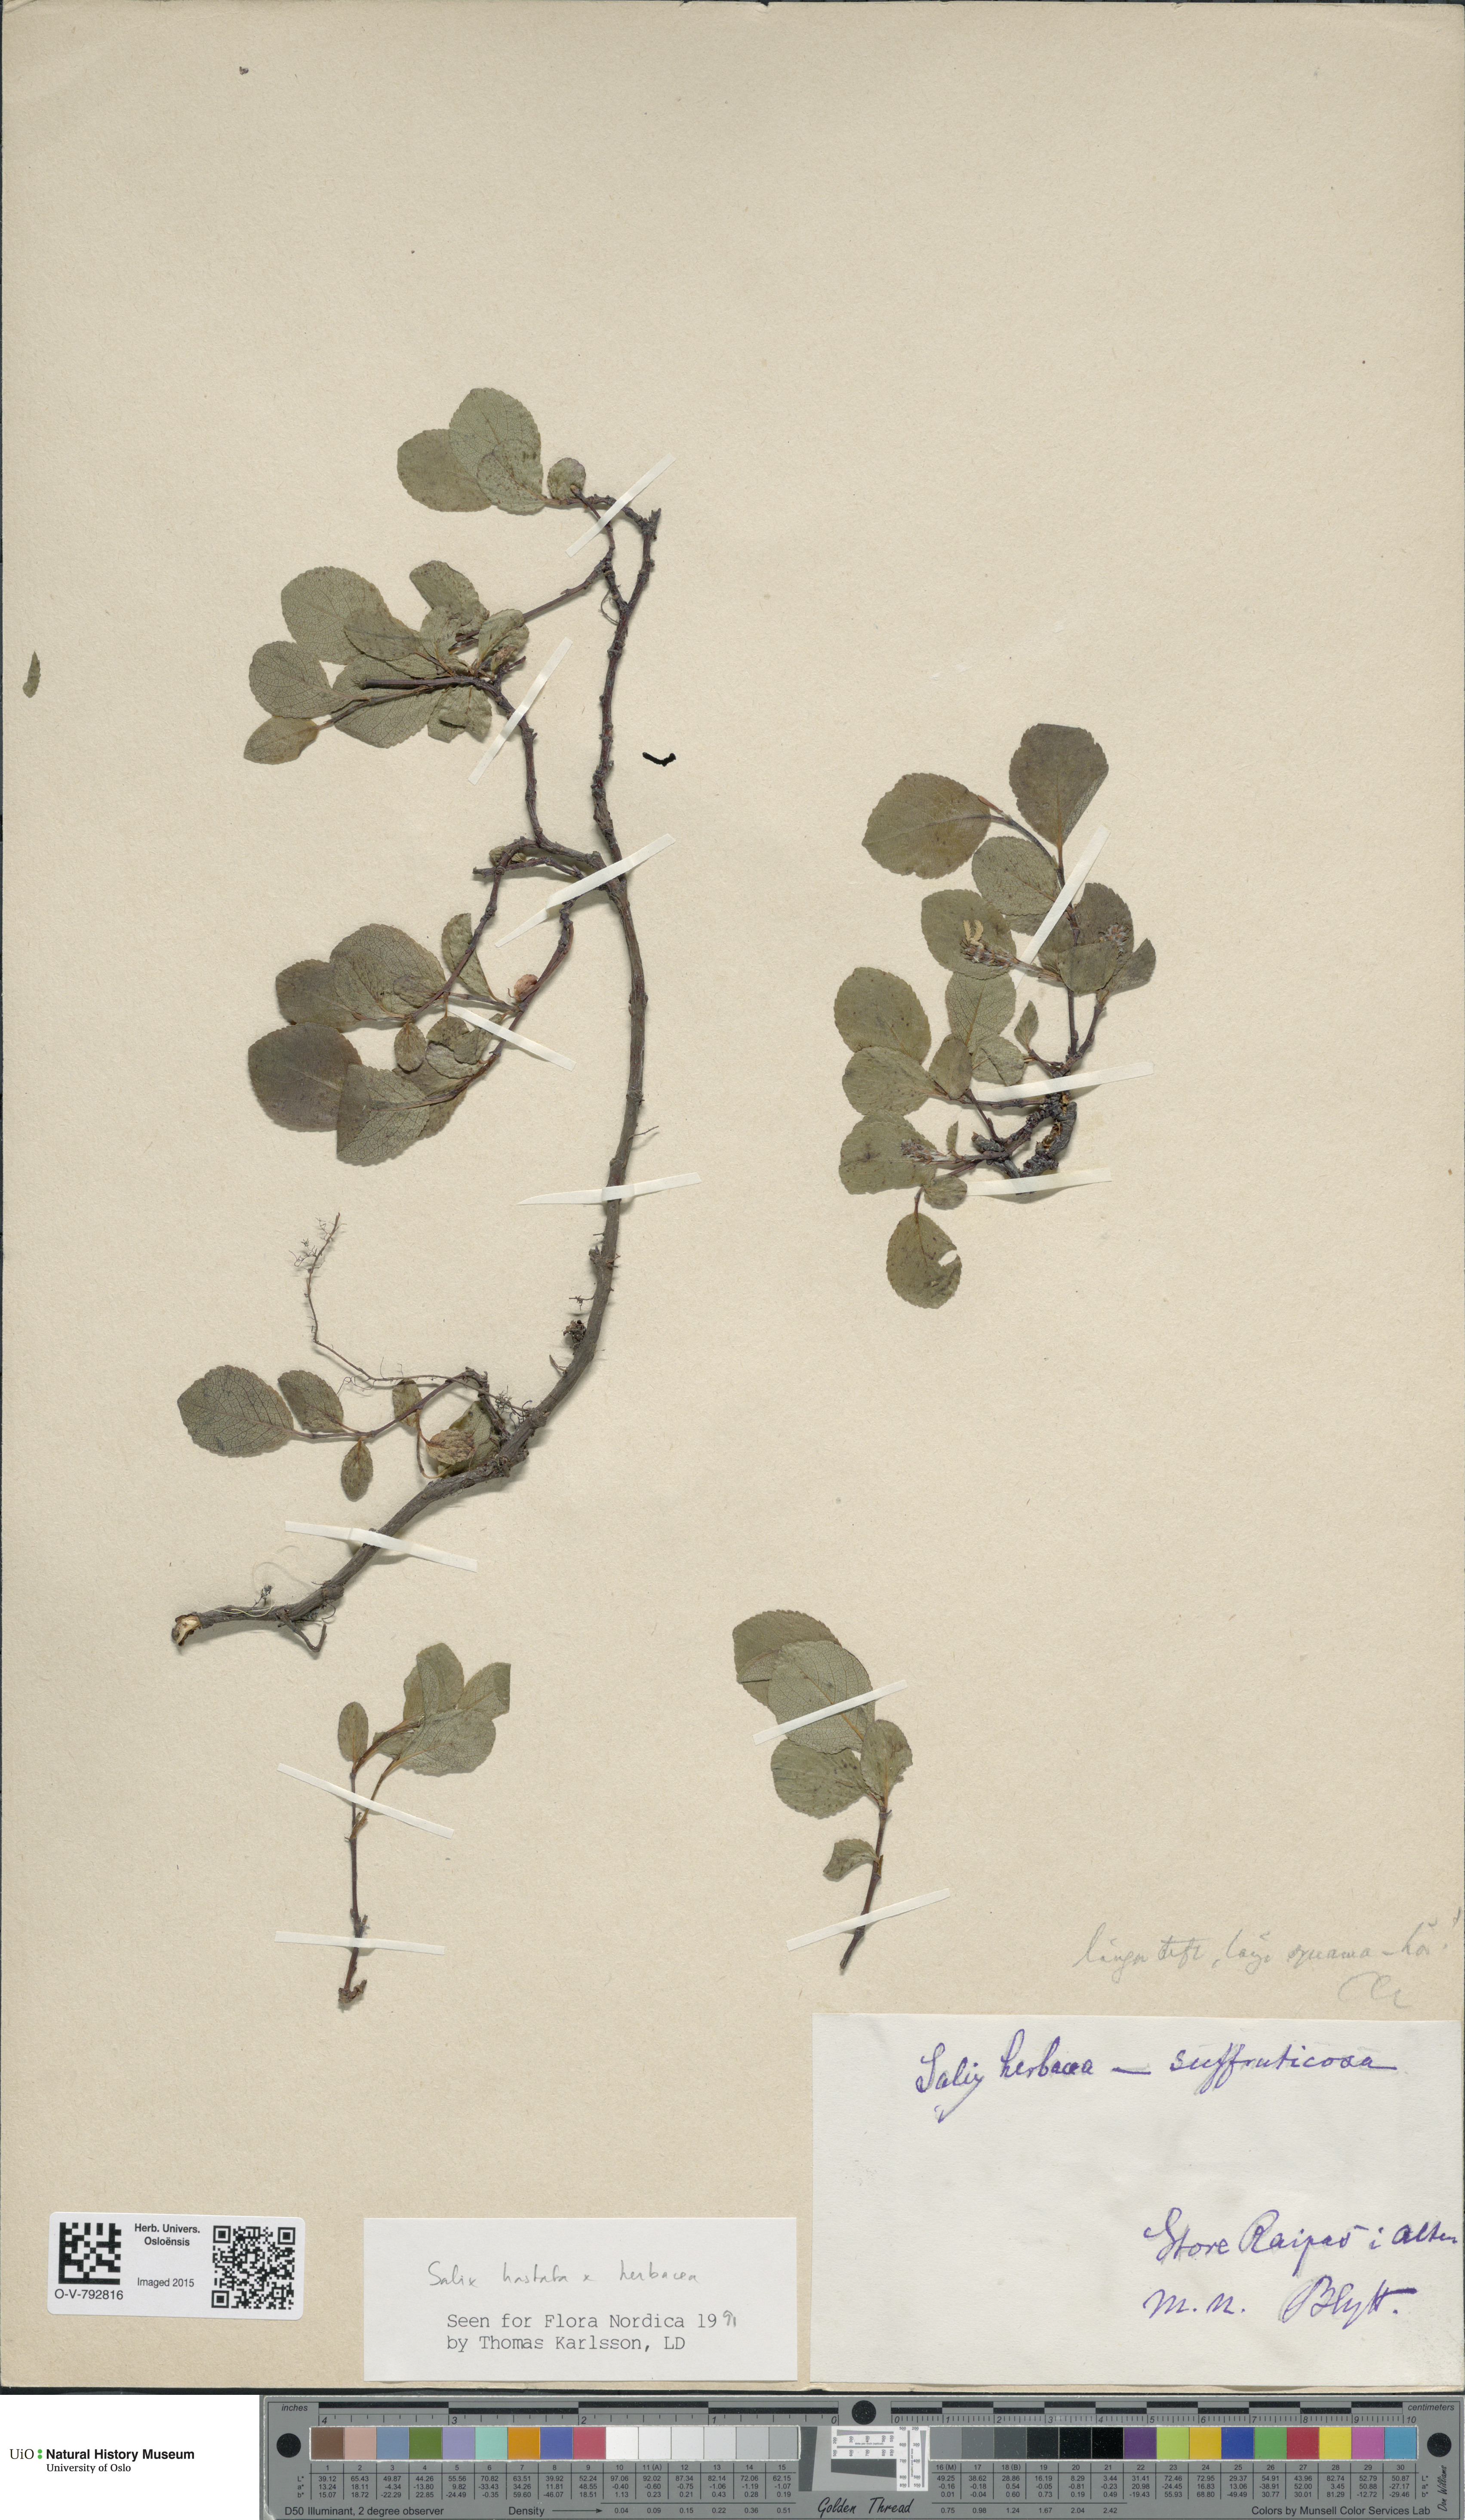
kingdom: Plantae
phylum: Tracheophyta
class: Magnoliopsida
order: Malpighiales
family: Salicaceae
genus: Salix
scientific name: Salix
